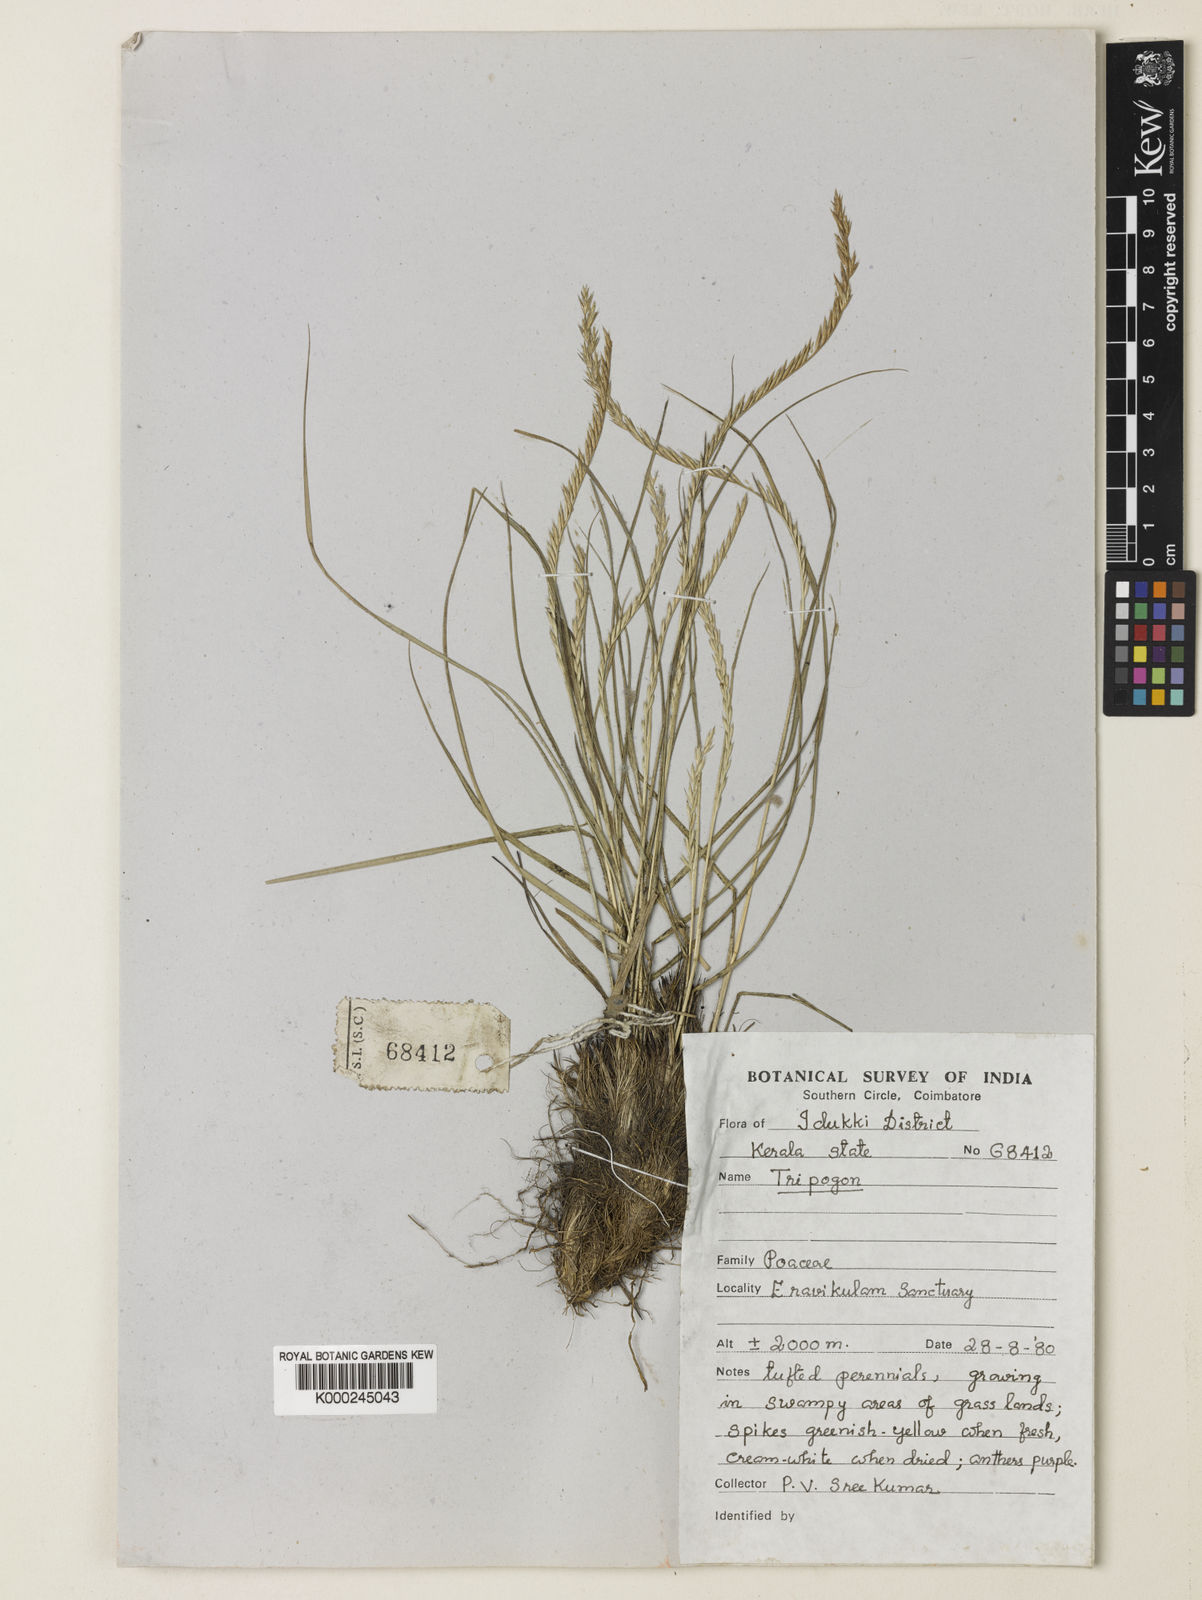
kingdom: Plantae
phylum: Tracheophyta
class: Liliopsida
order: Poales
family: Poaceae
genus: Tripogon
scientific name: Tripogon
